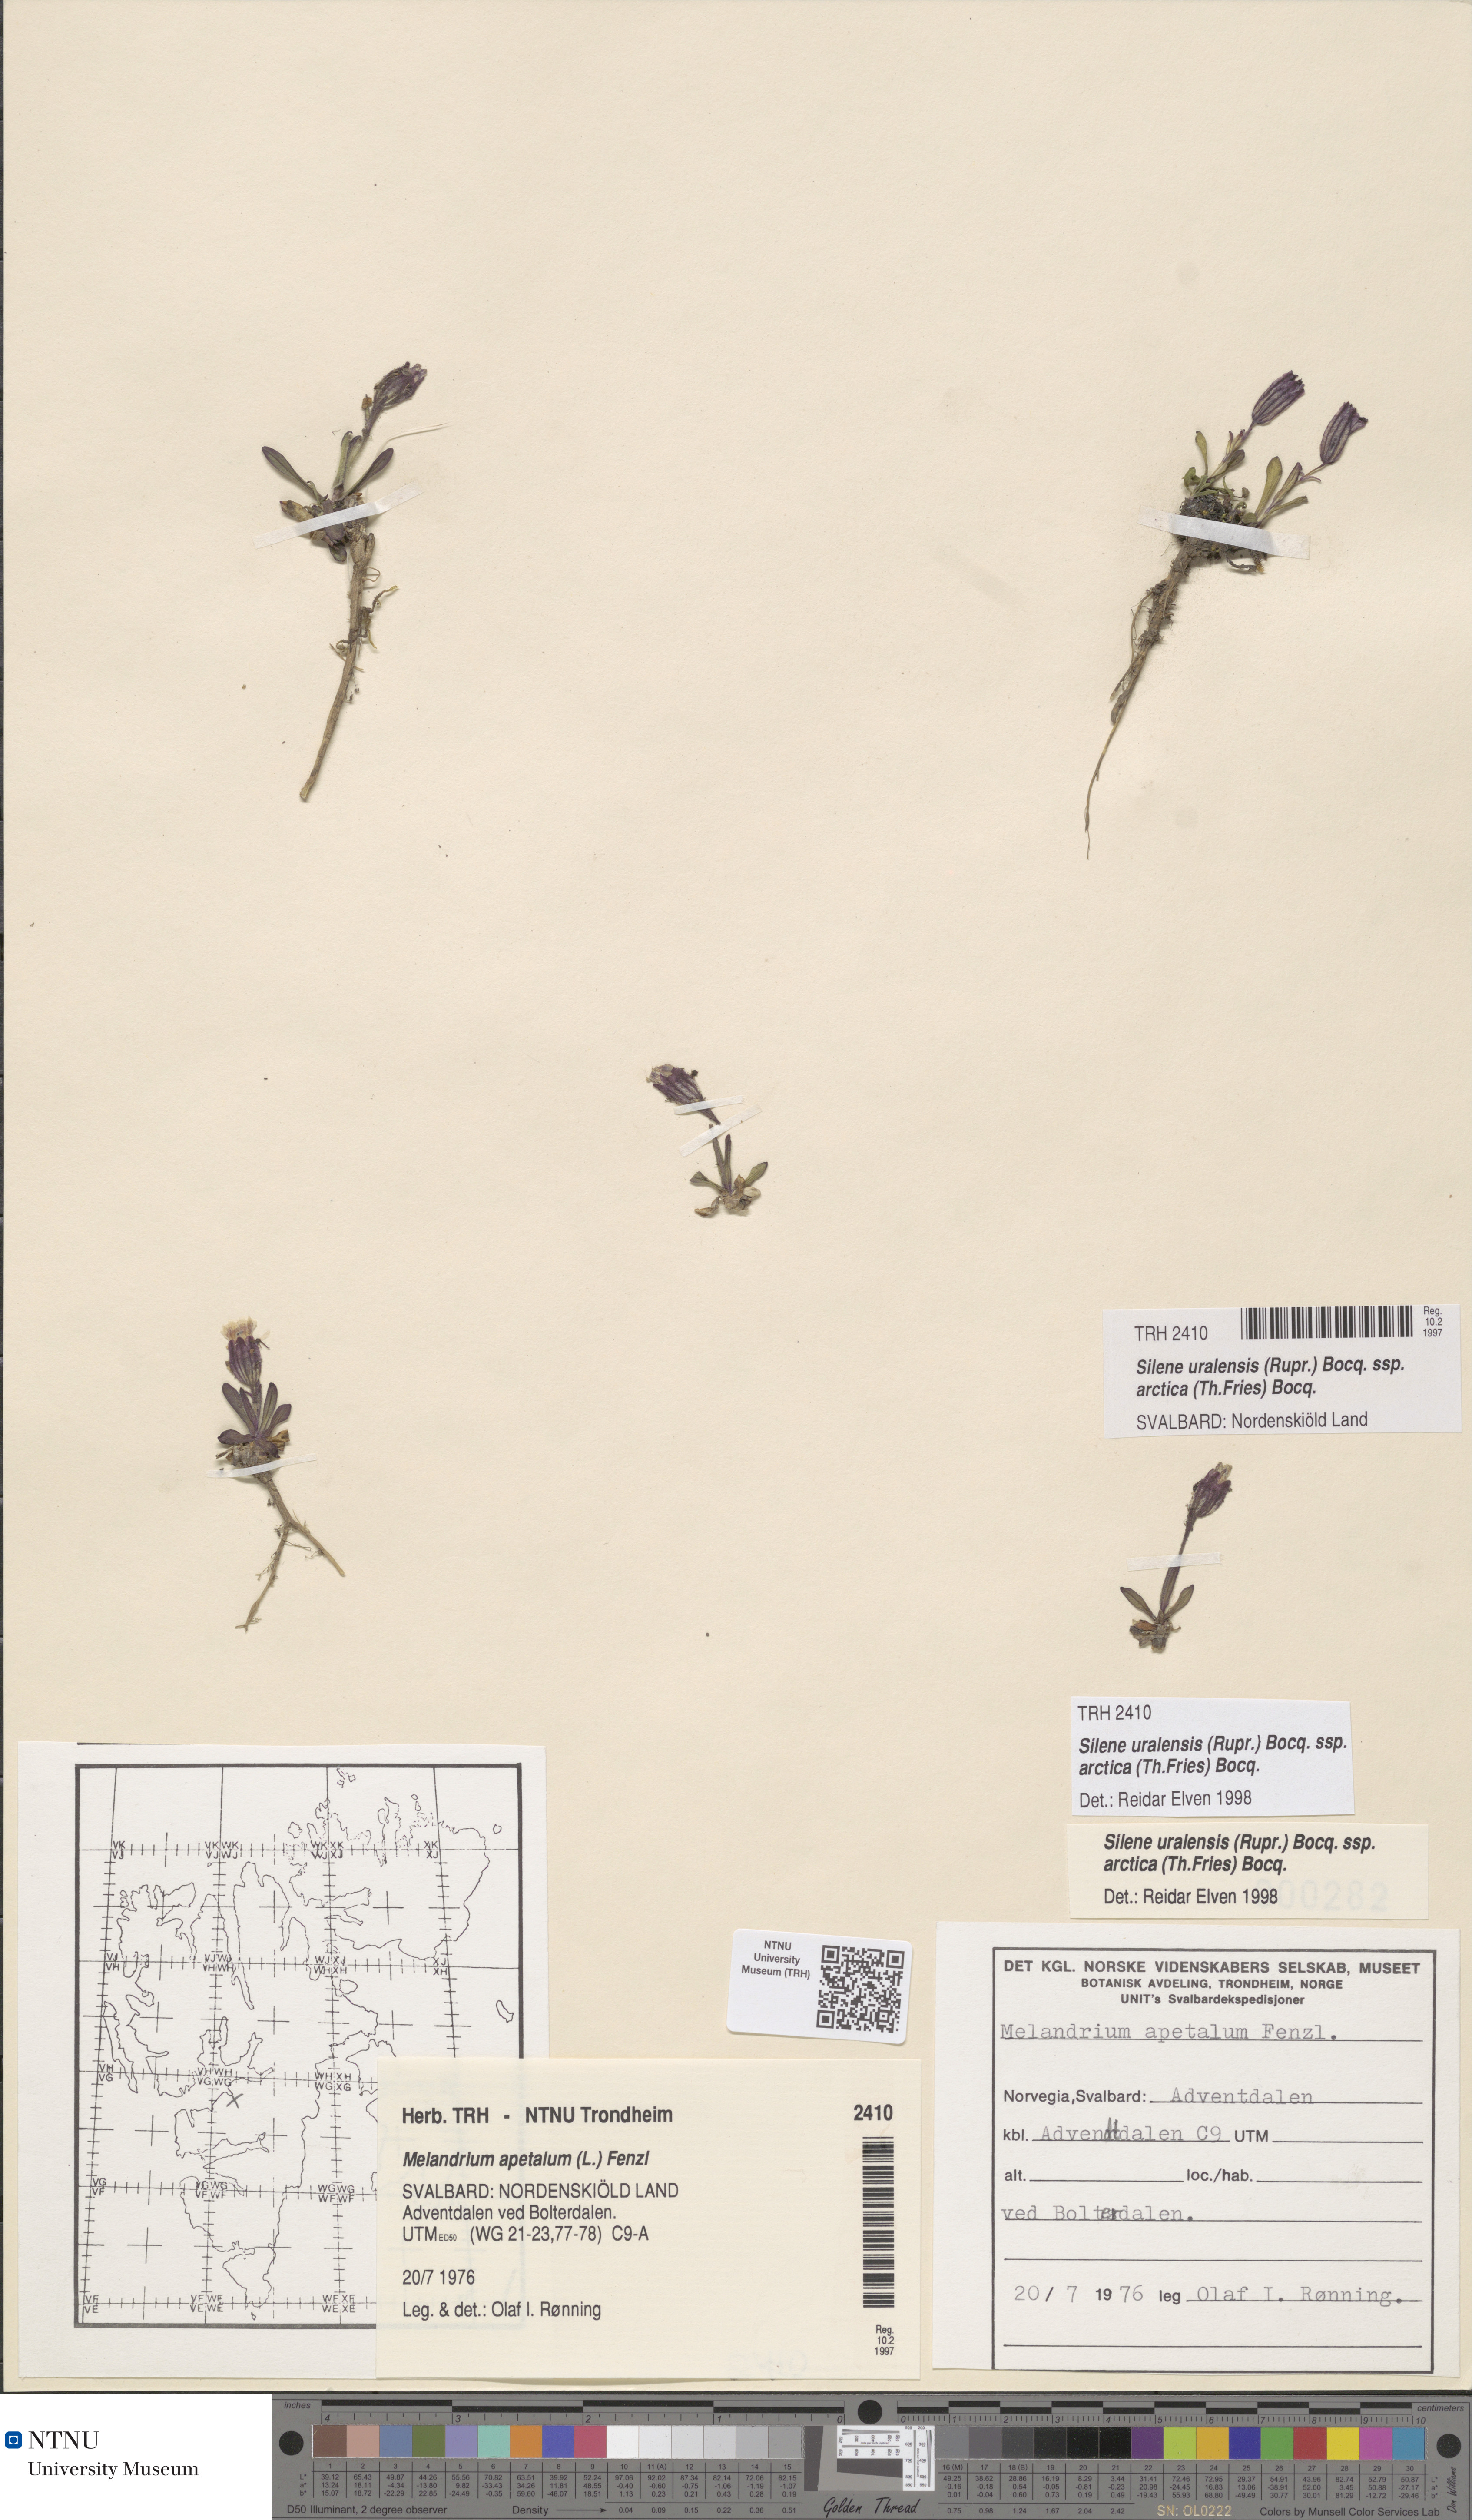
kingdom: Plantae
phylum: Tracheophyta
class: Magnoliopsida
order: Caryophyllales
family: Caryophyllaceae
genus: Silene
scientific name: Silene uralensis
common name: Nodding campion
